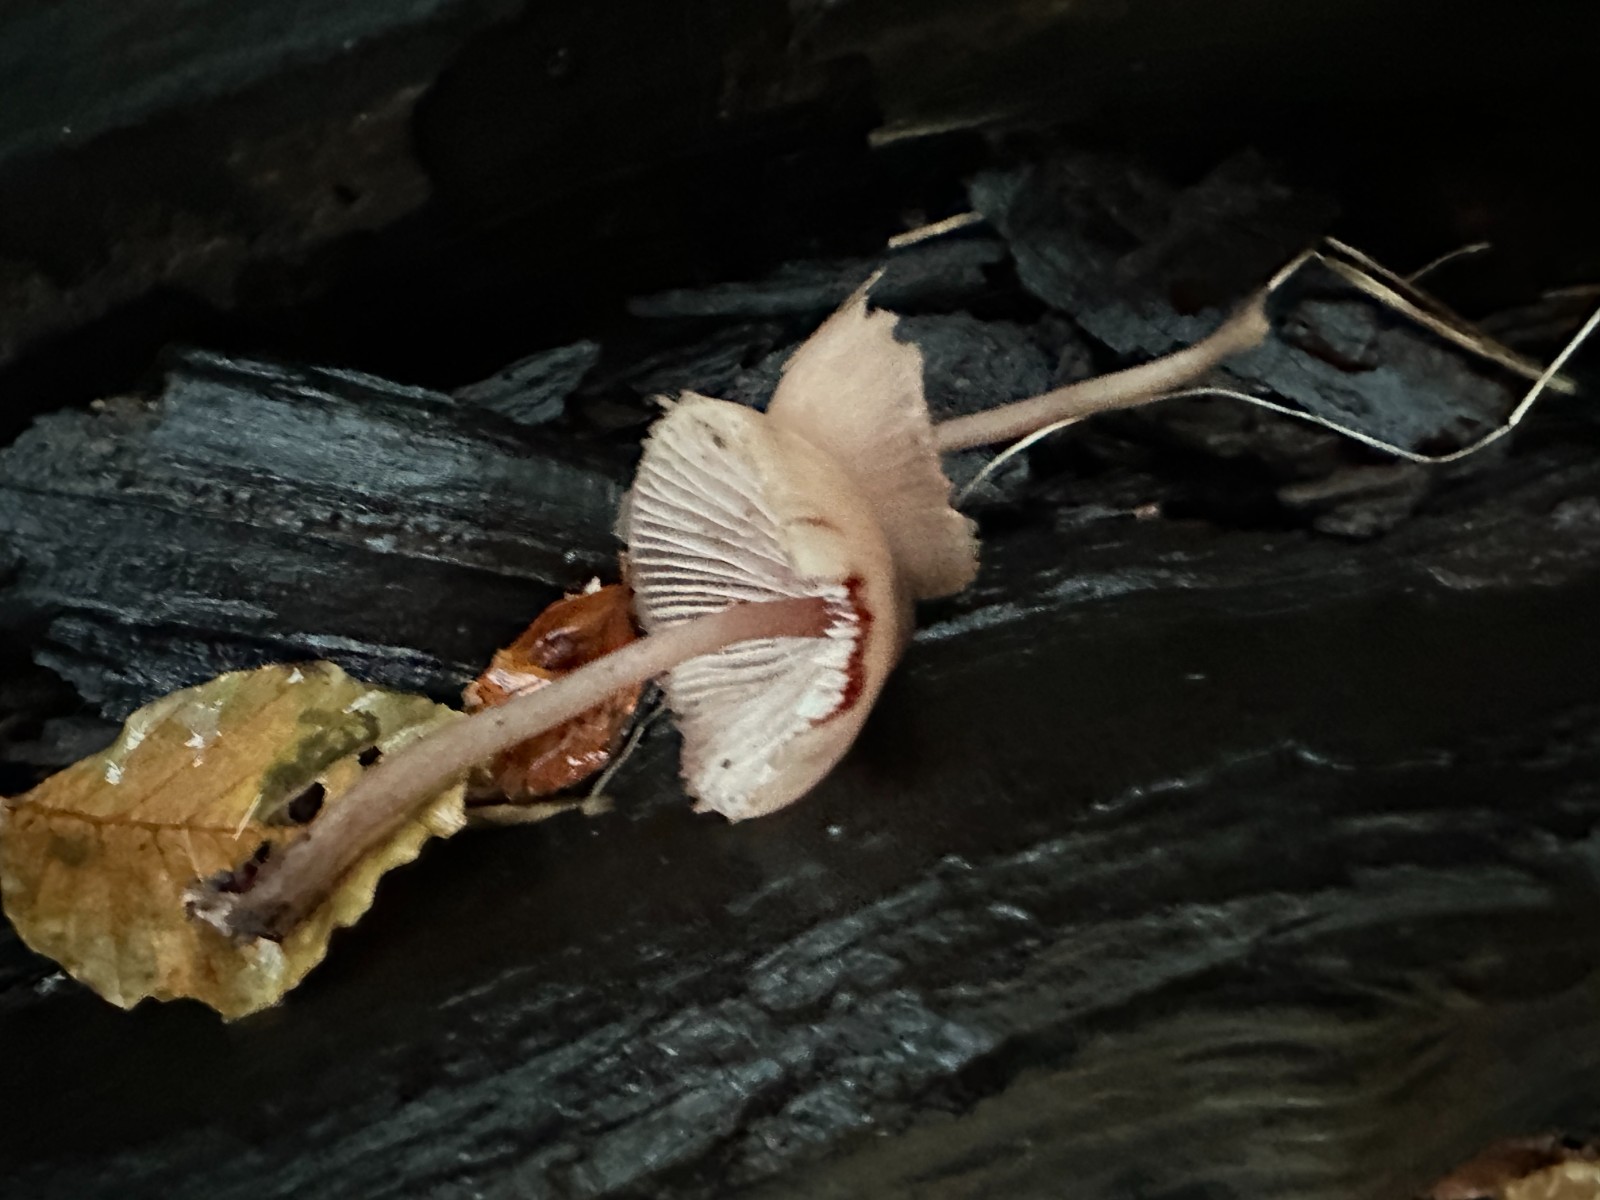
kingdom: Fungi
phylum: Basidiomycota
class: Agaricomycetes
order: Agaricales
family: Mycenaceae
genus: Mycena
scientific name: Mycena haematopus
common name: blødende huesvamp
